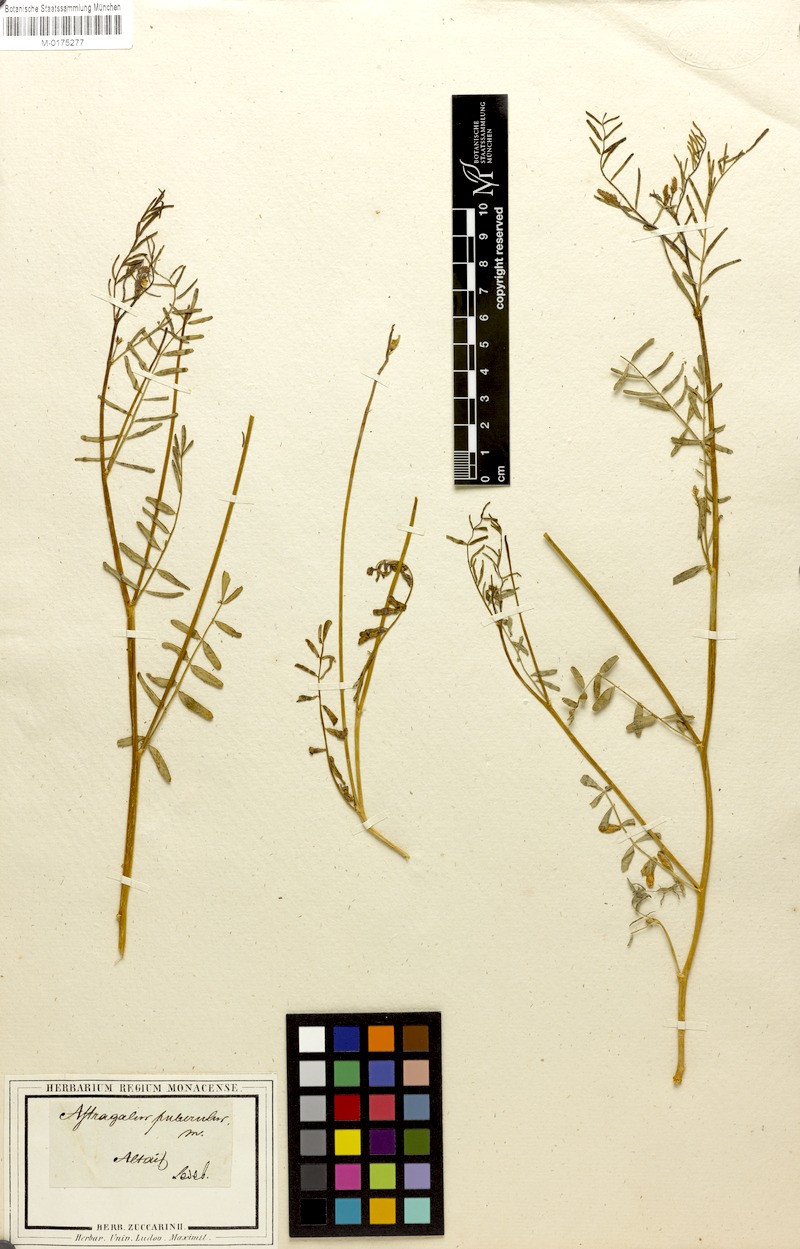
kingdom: Plantae
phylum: Tracheophyta
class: Magnoliopsida
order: Fabales
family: Fabaceae
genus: Astragalus
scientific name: Astragalus puberulus
